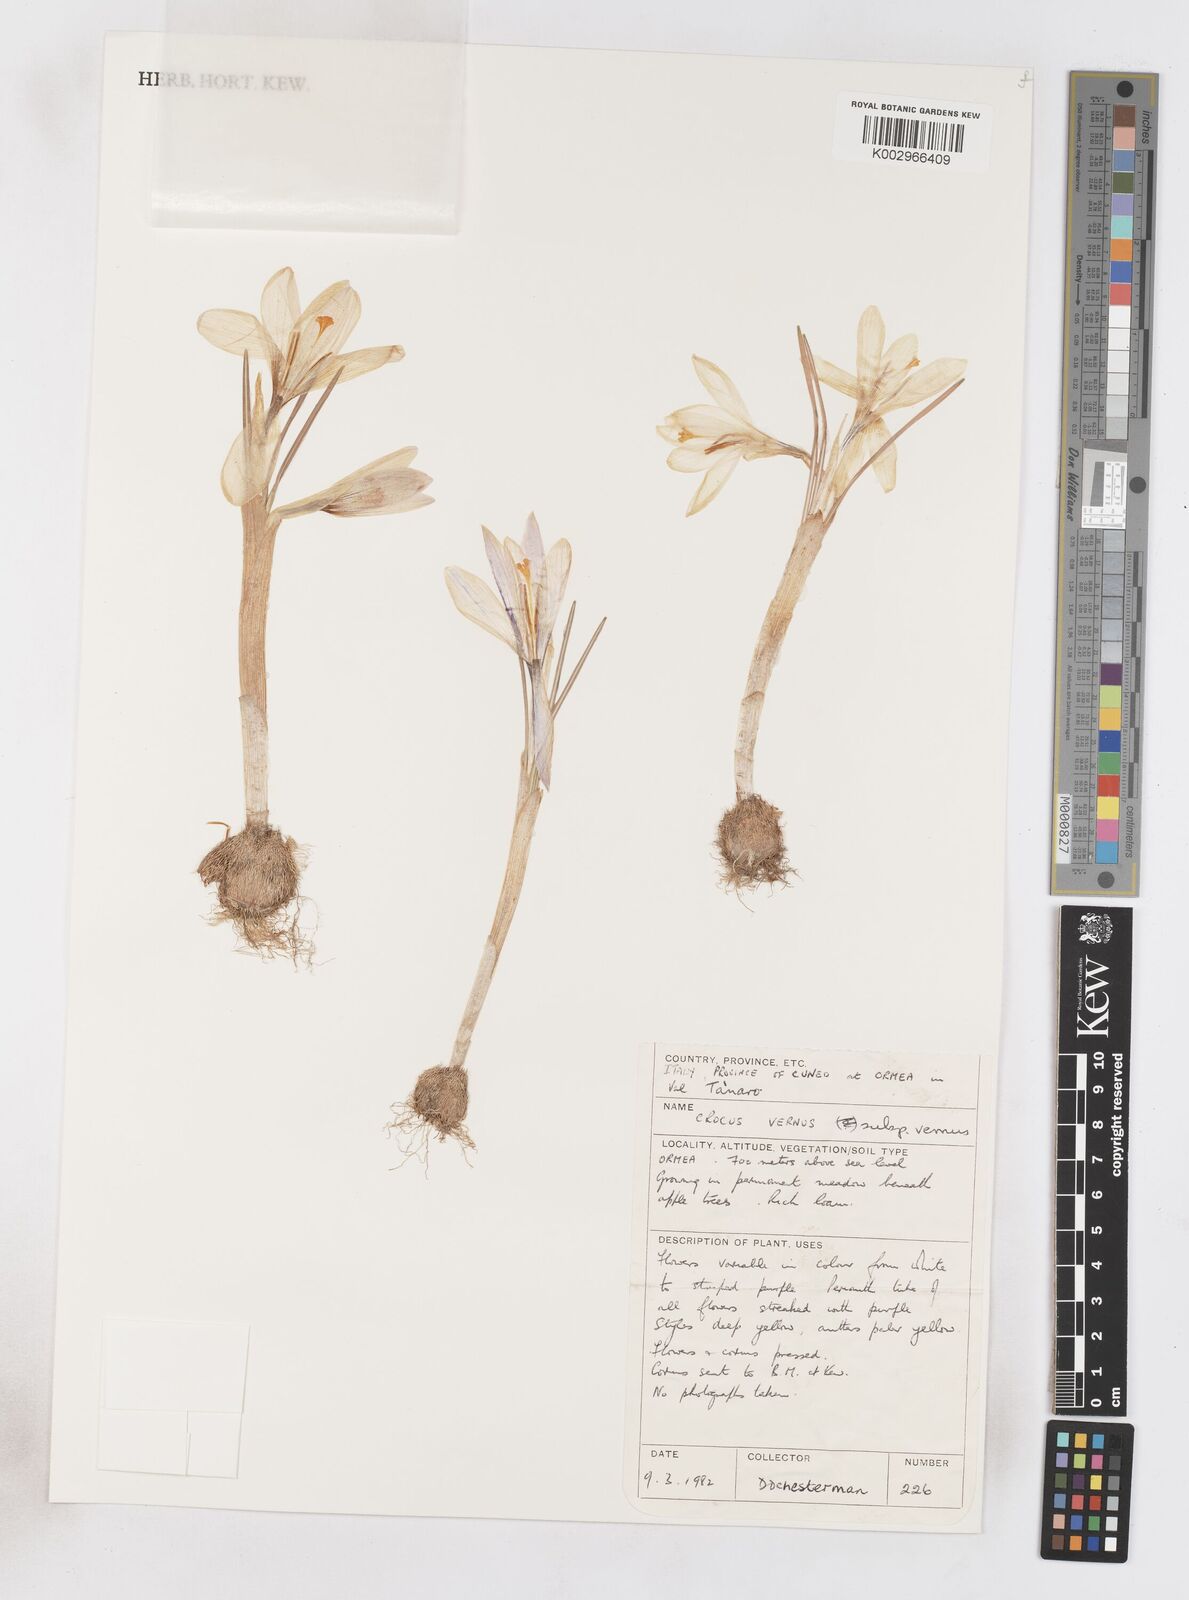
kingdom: Plantae
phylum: Tracheophyta
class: Liliopsida
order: Asparagales
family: Iridaceae
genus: Crocus
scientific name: Crocus vernus
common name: Spring crocus
